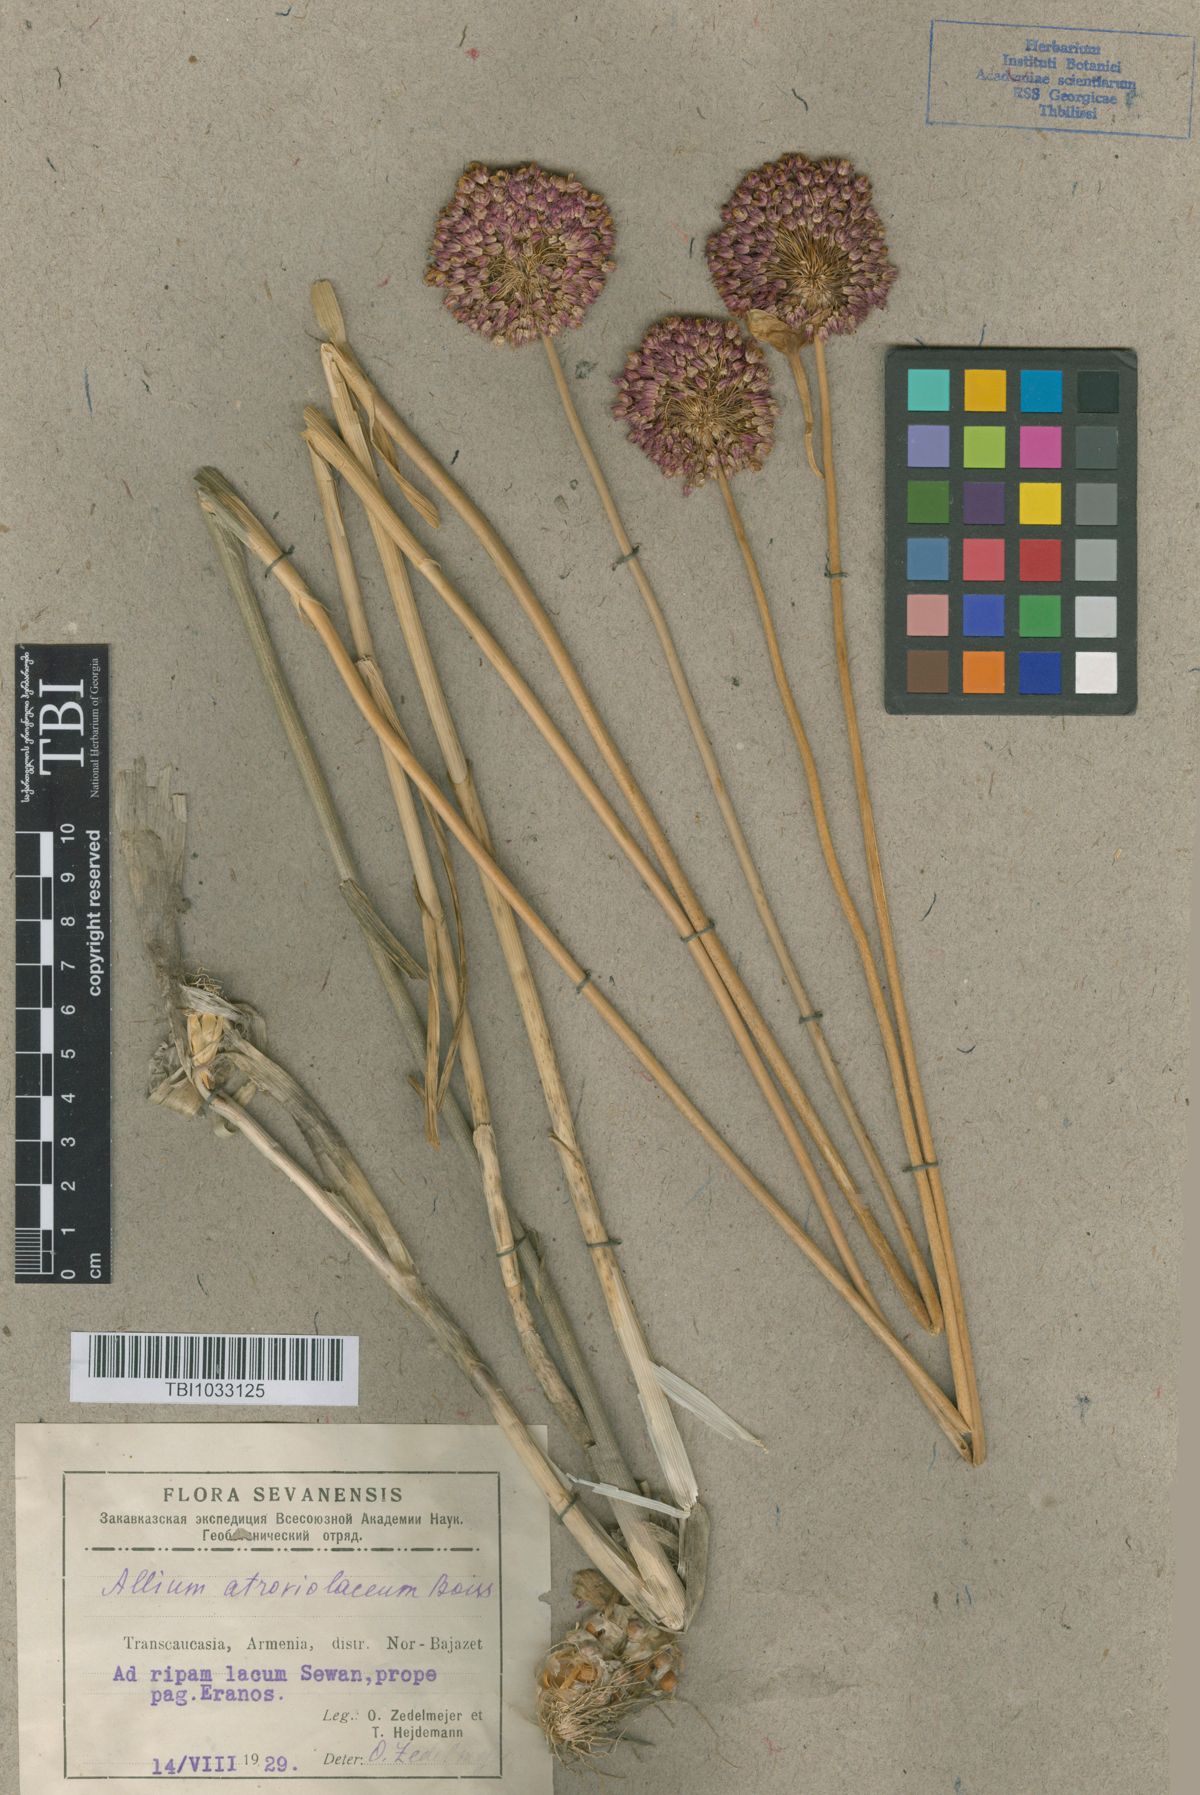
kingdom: Plantae
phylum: Tracheophyta
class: Liliopsida
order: Asparagales
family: Amaryllidaceae
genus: Allium
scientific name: Allium atroviolaceum
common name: Broadleaf wild leek
